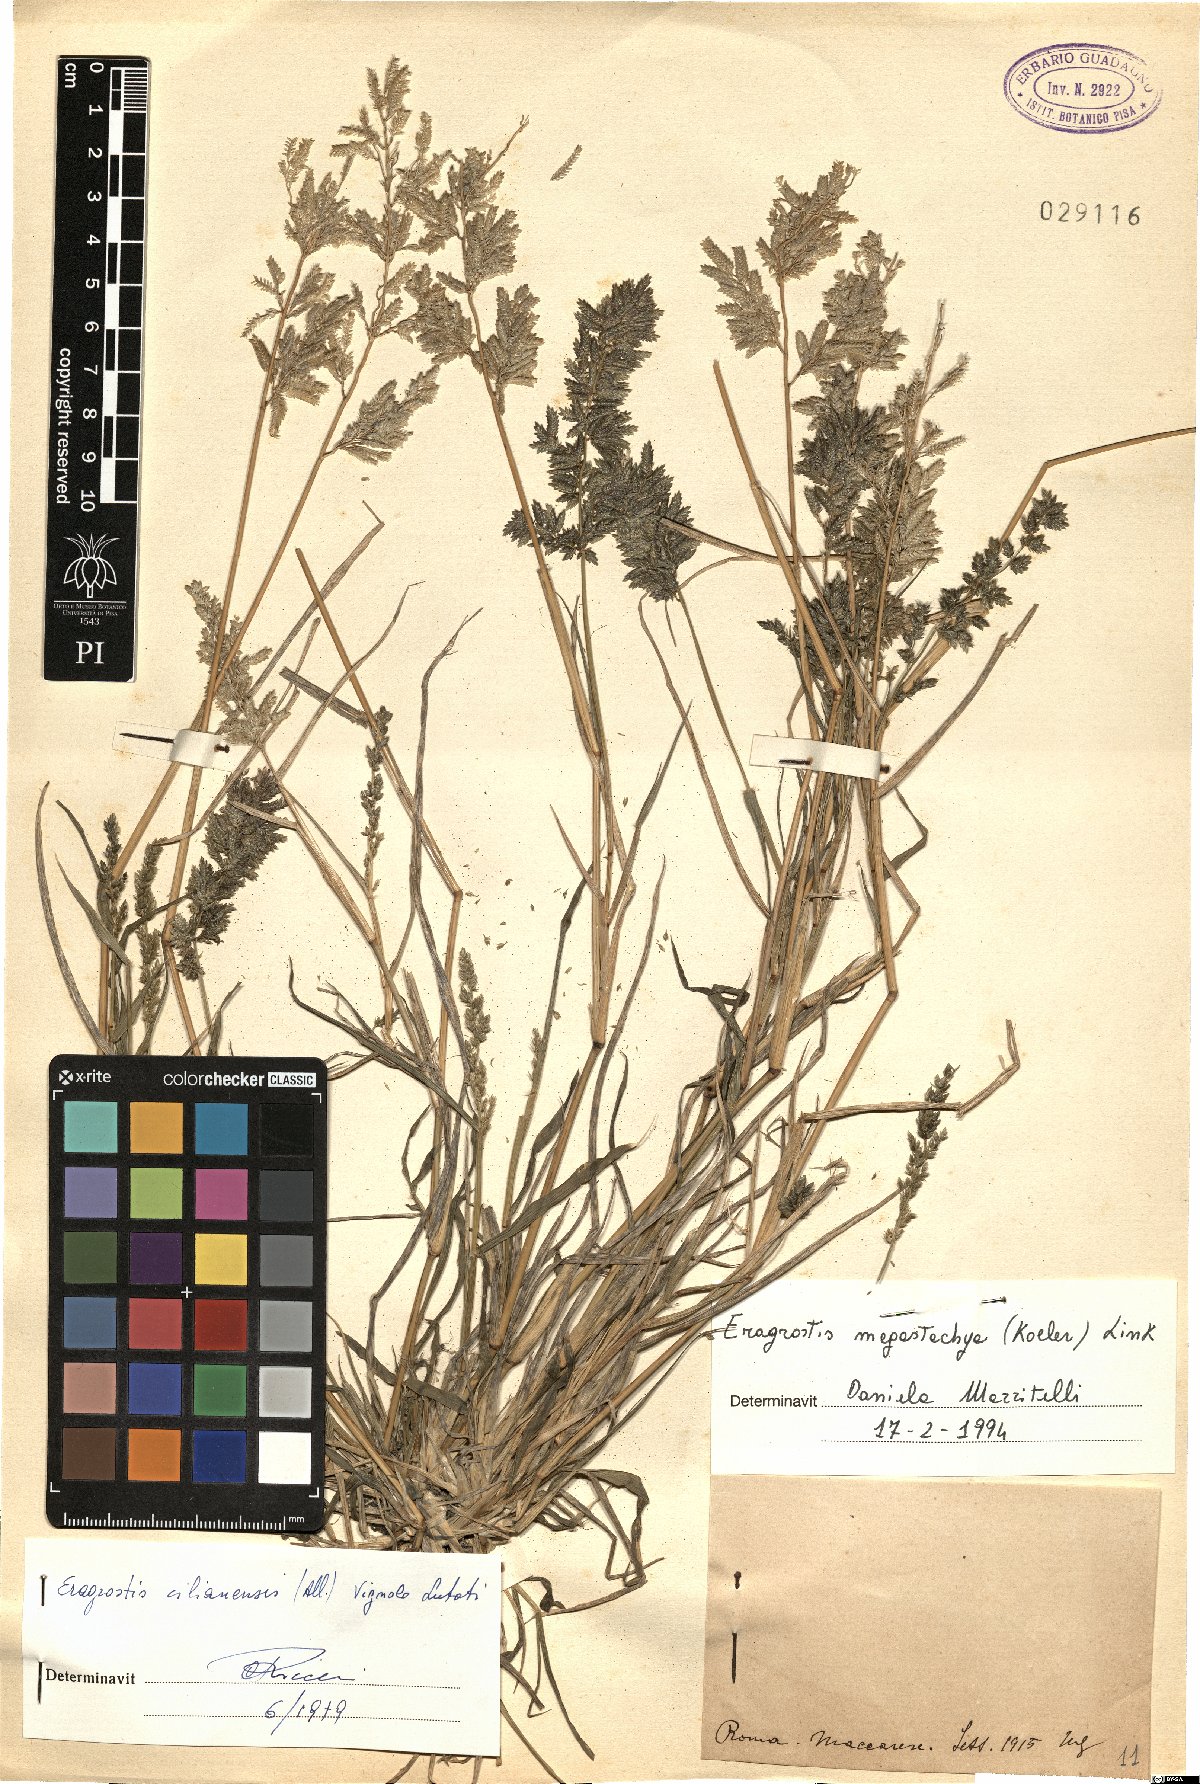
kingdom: Plantae
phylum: Tracheophyta
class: Liliopsida
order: Poales
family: Poaceae
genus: Eragrostis
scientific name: Eragrostis cilianensis
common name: Stinkgrass
